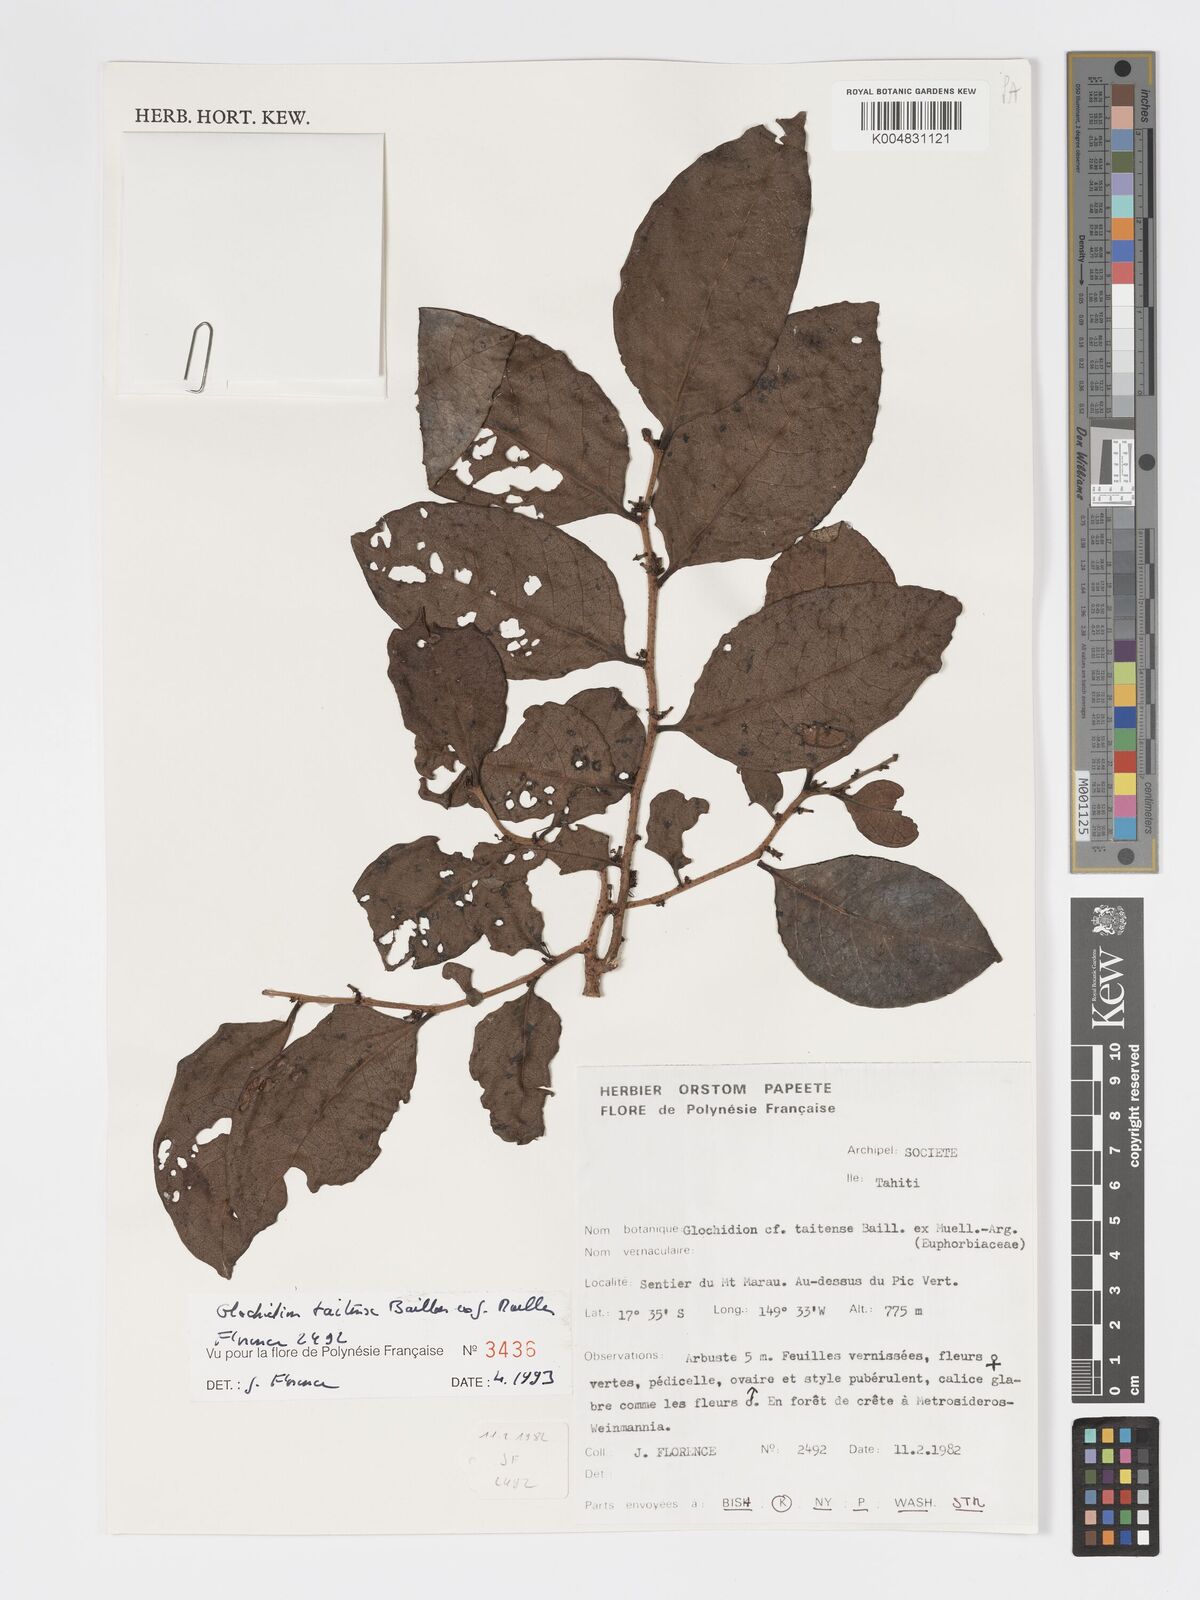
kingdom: Plantae
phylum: Tracheophyta
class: Magnoliopsida
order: Malpighiales
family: Phyllanthaceae
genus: Glochidion
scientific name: Glochidion taitense
